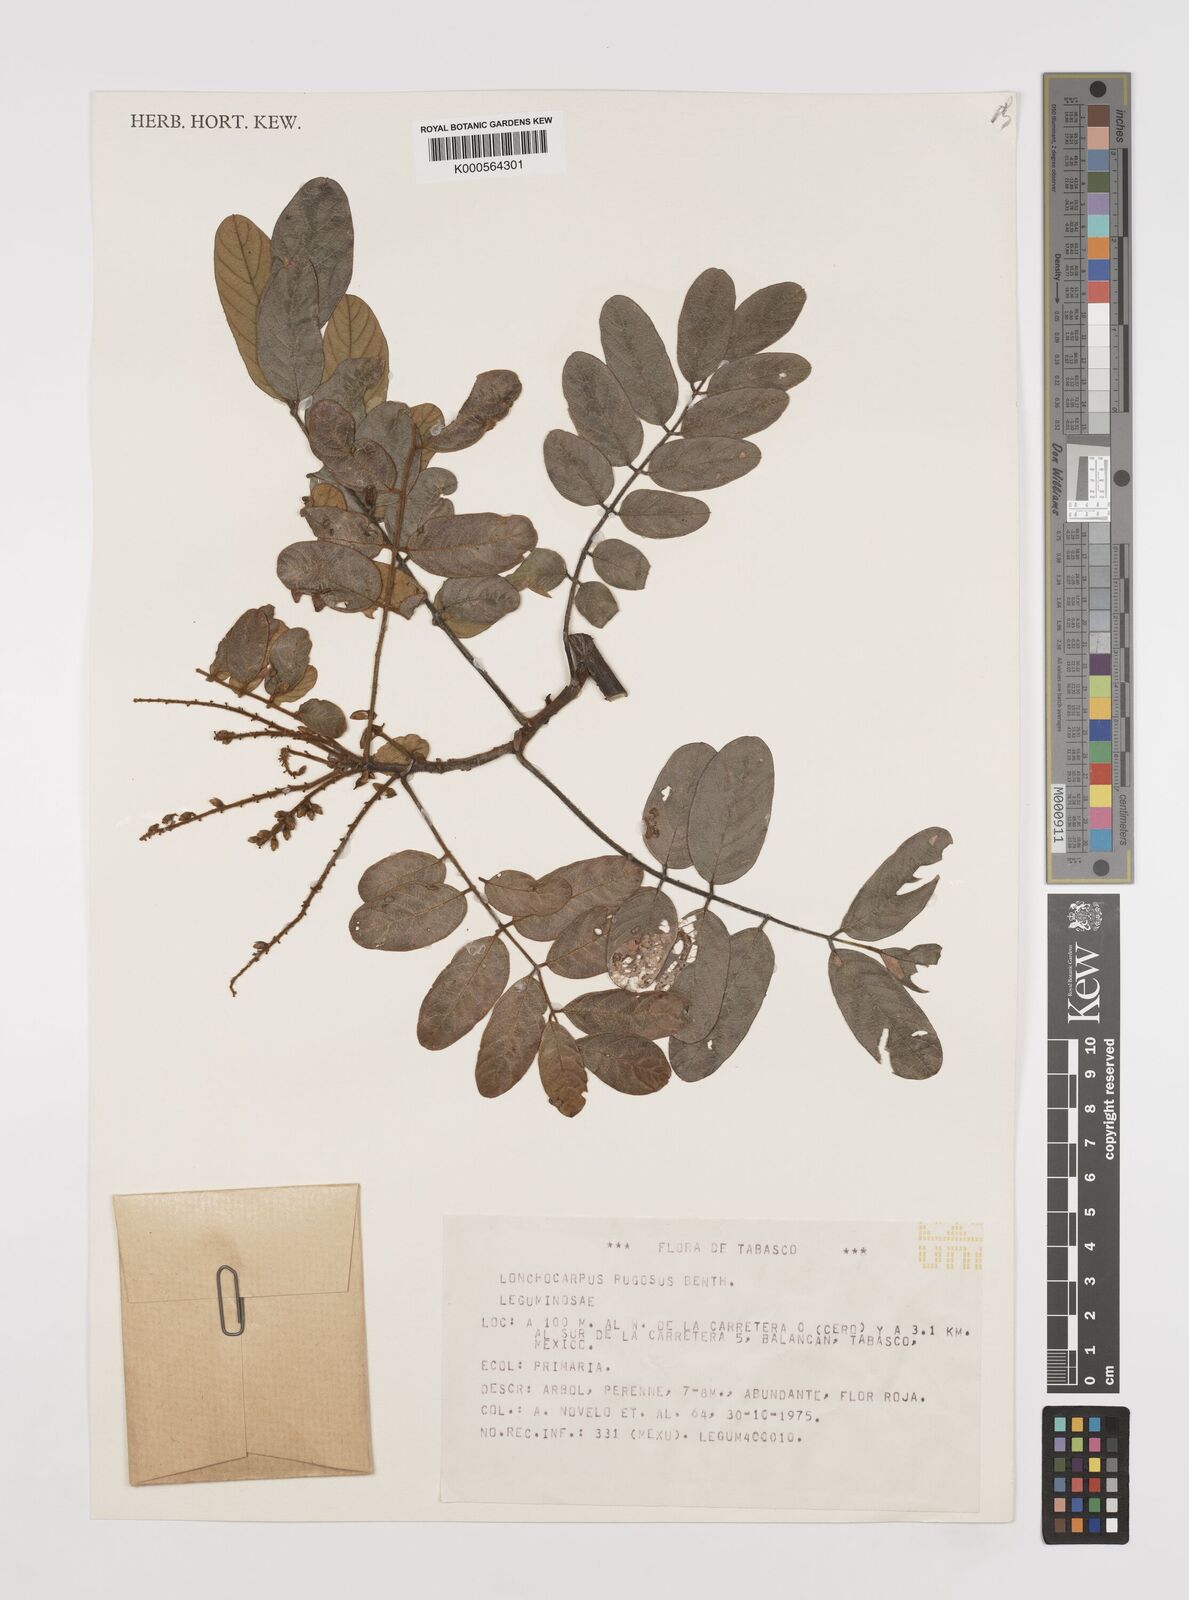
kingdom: Plantae
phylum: Tracheophyta
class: Magnoliopsida
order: Fabales
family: Fabaceae
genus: Lonchocarpus
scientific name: Lonchocarpus rugosus
